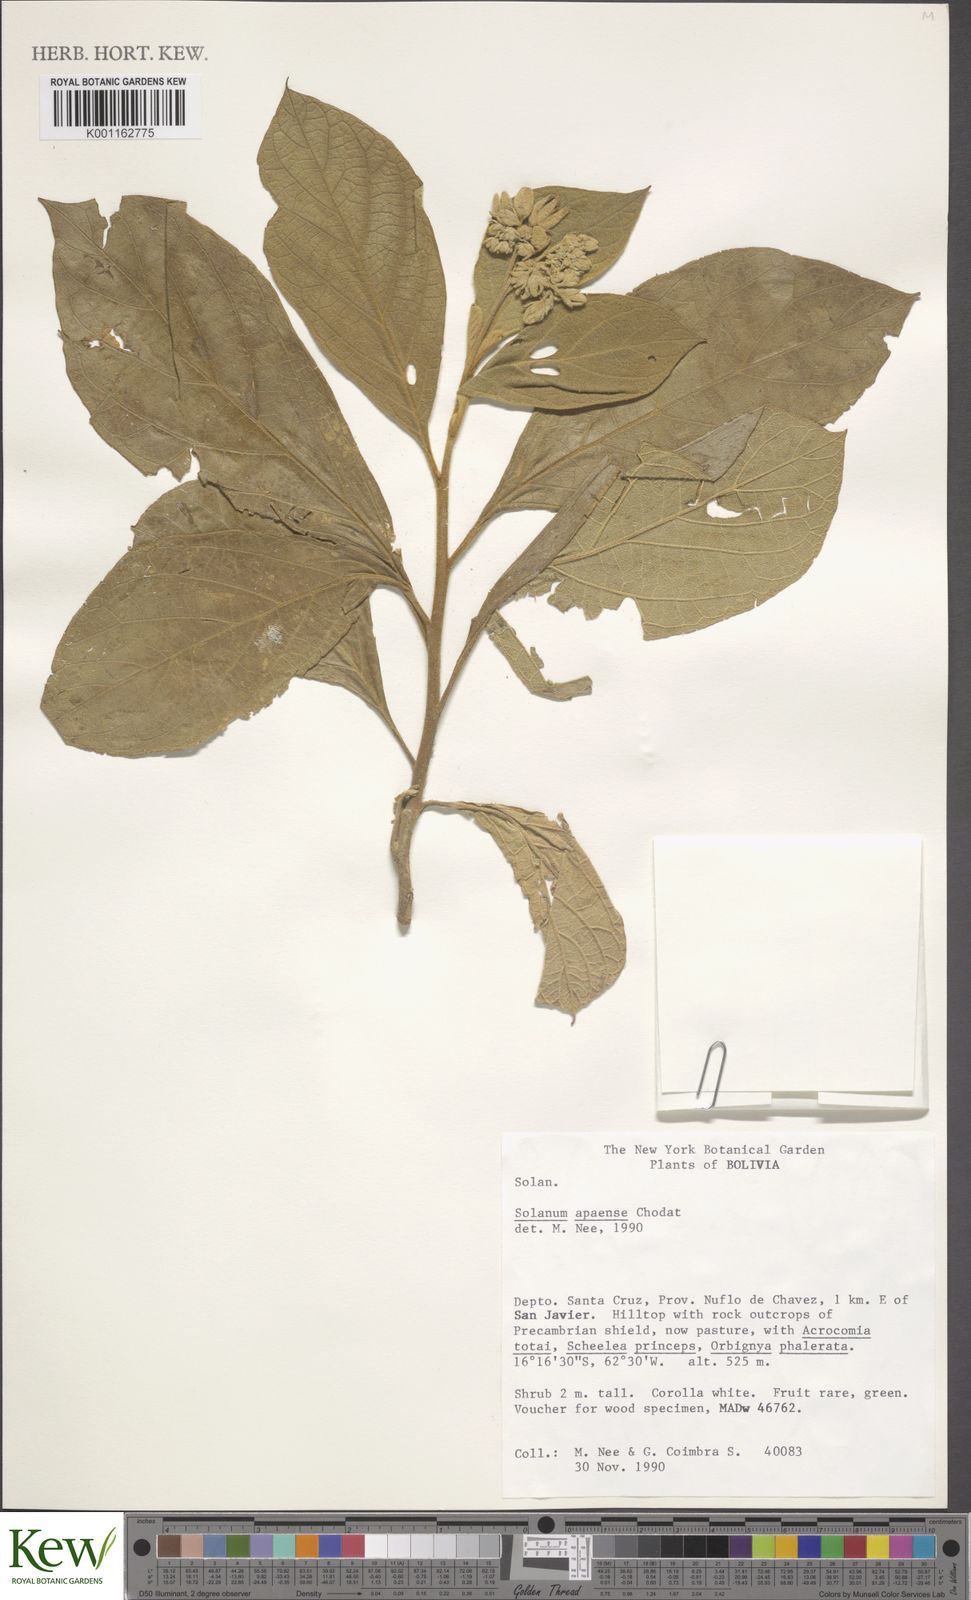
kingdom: Plantae
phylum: Tracheophyta
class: Magnoliopsida
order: Solanales
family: Solanaceae
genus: Solanum
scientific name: Solanum rhytidoandrum
